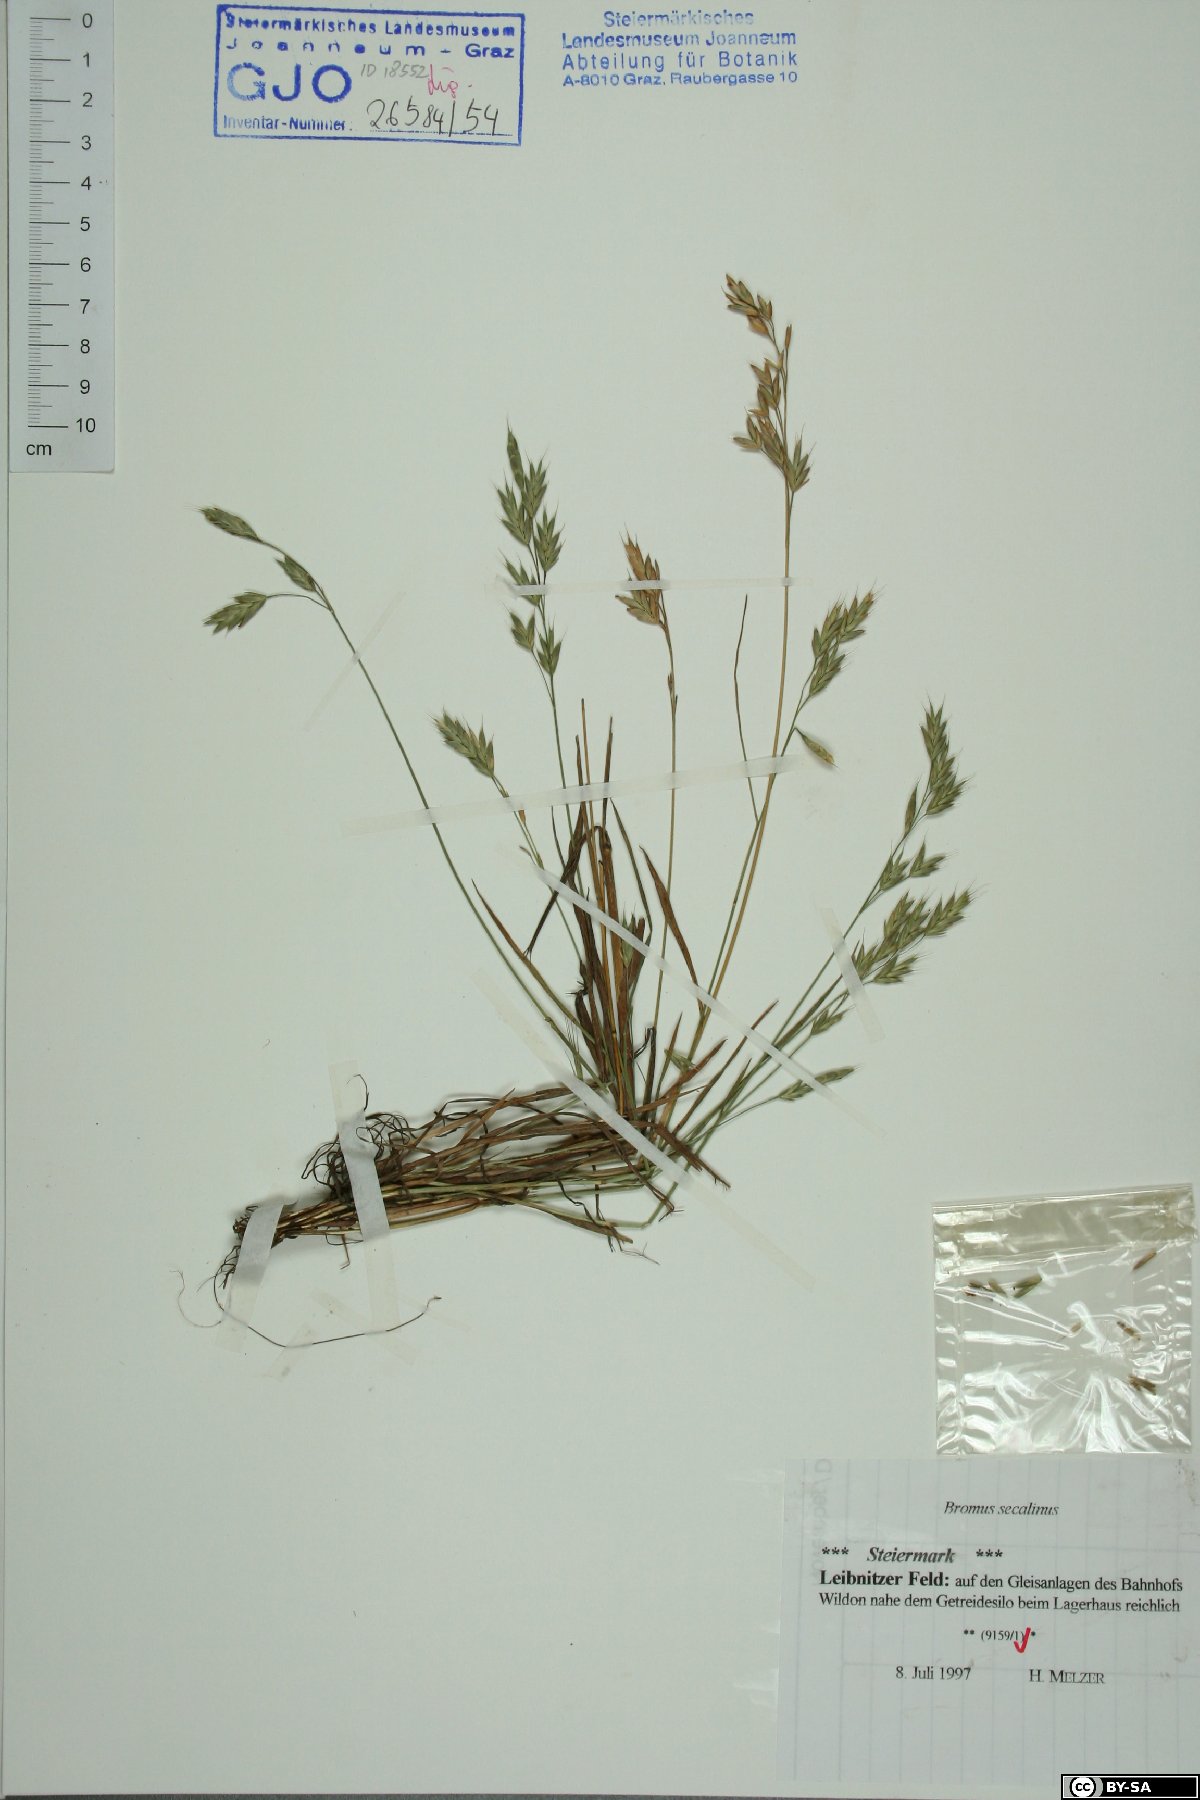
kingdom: Plantae
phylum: Tracheophyta
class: Liliopsida
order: Poales
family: Poaceae
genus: Bromus
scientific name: Bromus secalinus
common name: Rye brome
